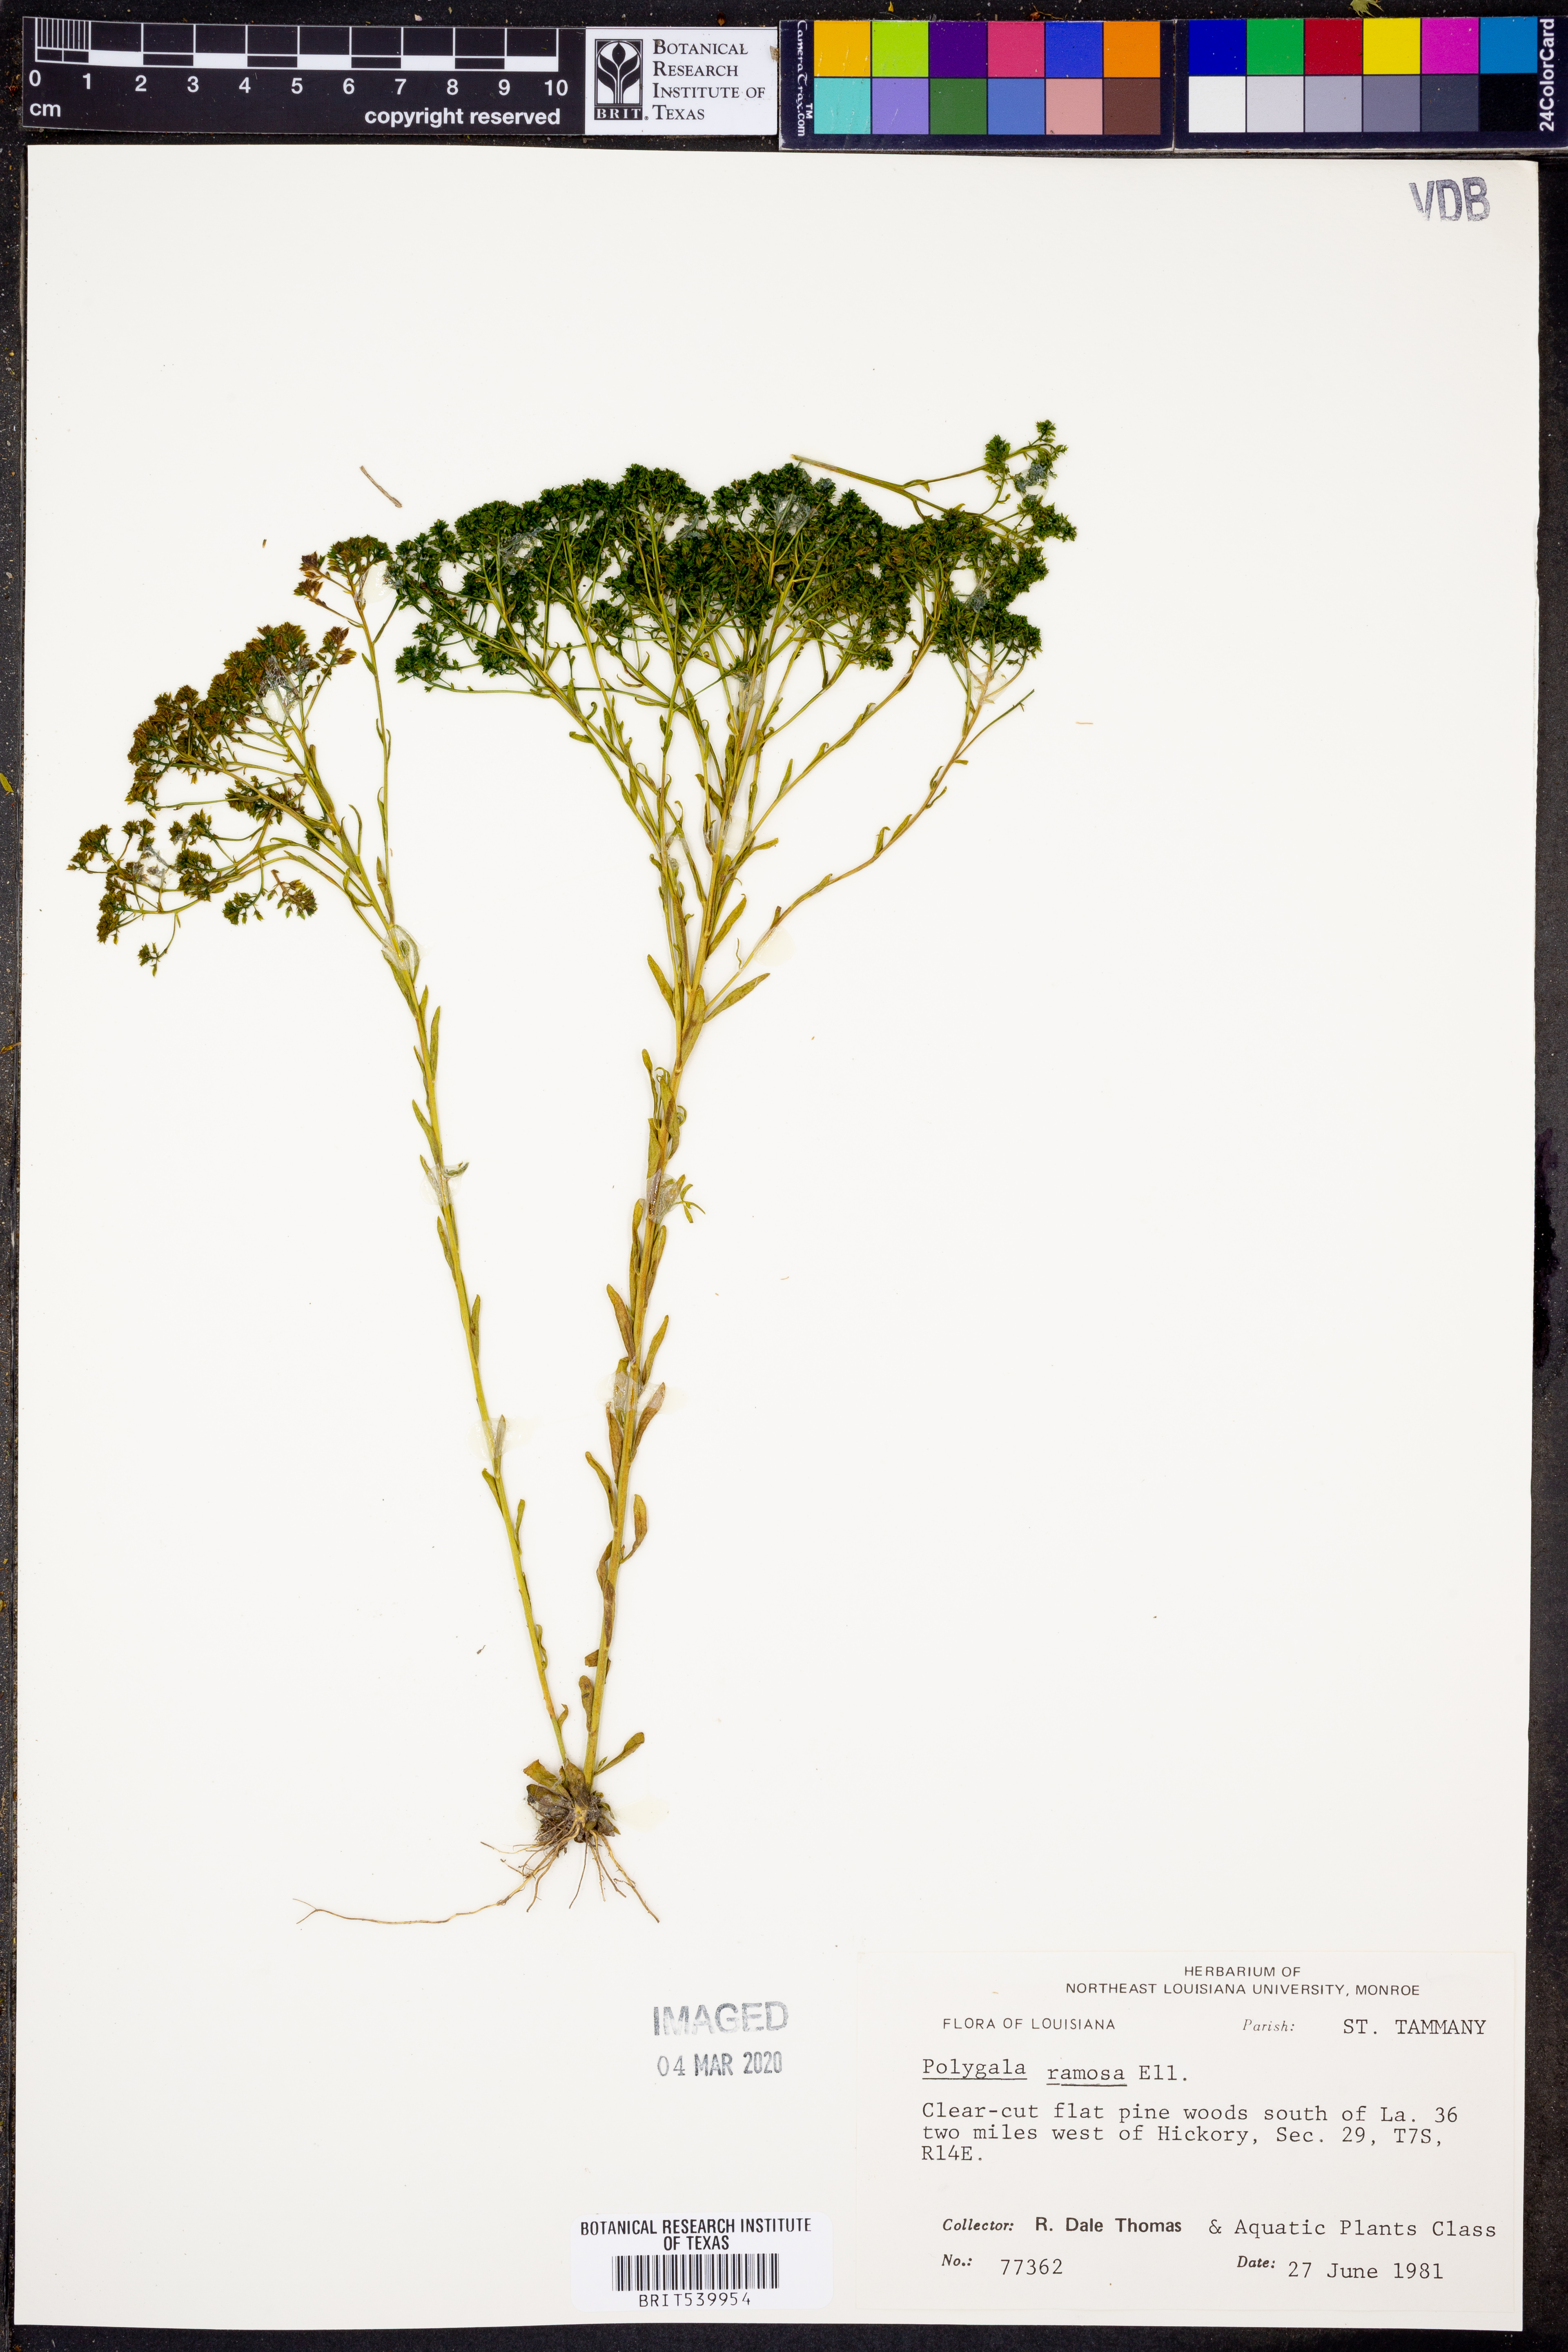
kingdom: Plantae
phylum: Tracheophyta
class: Magnoliopsida
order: Fabales
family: Polygalaceae
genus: Polygala
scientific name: Polygala ramosa
